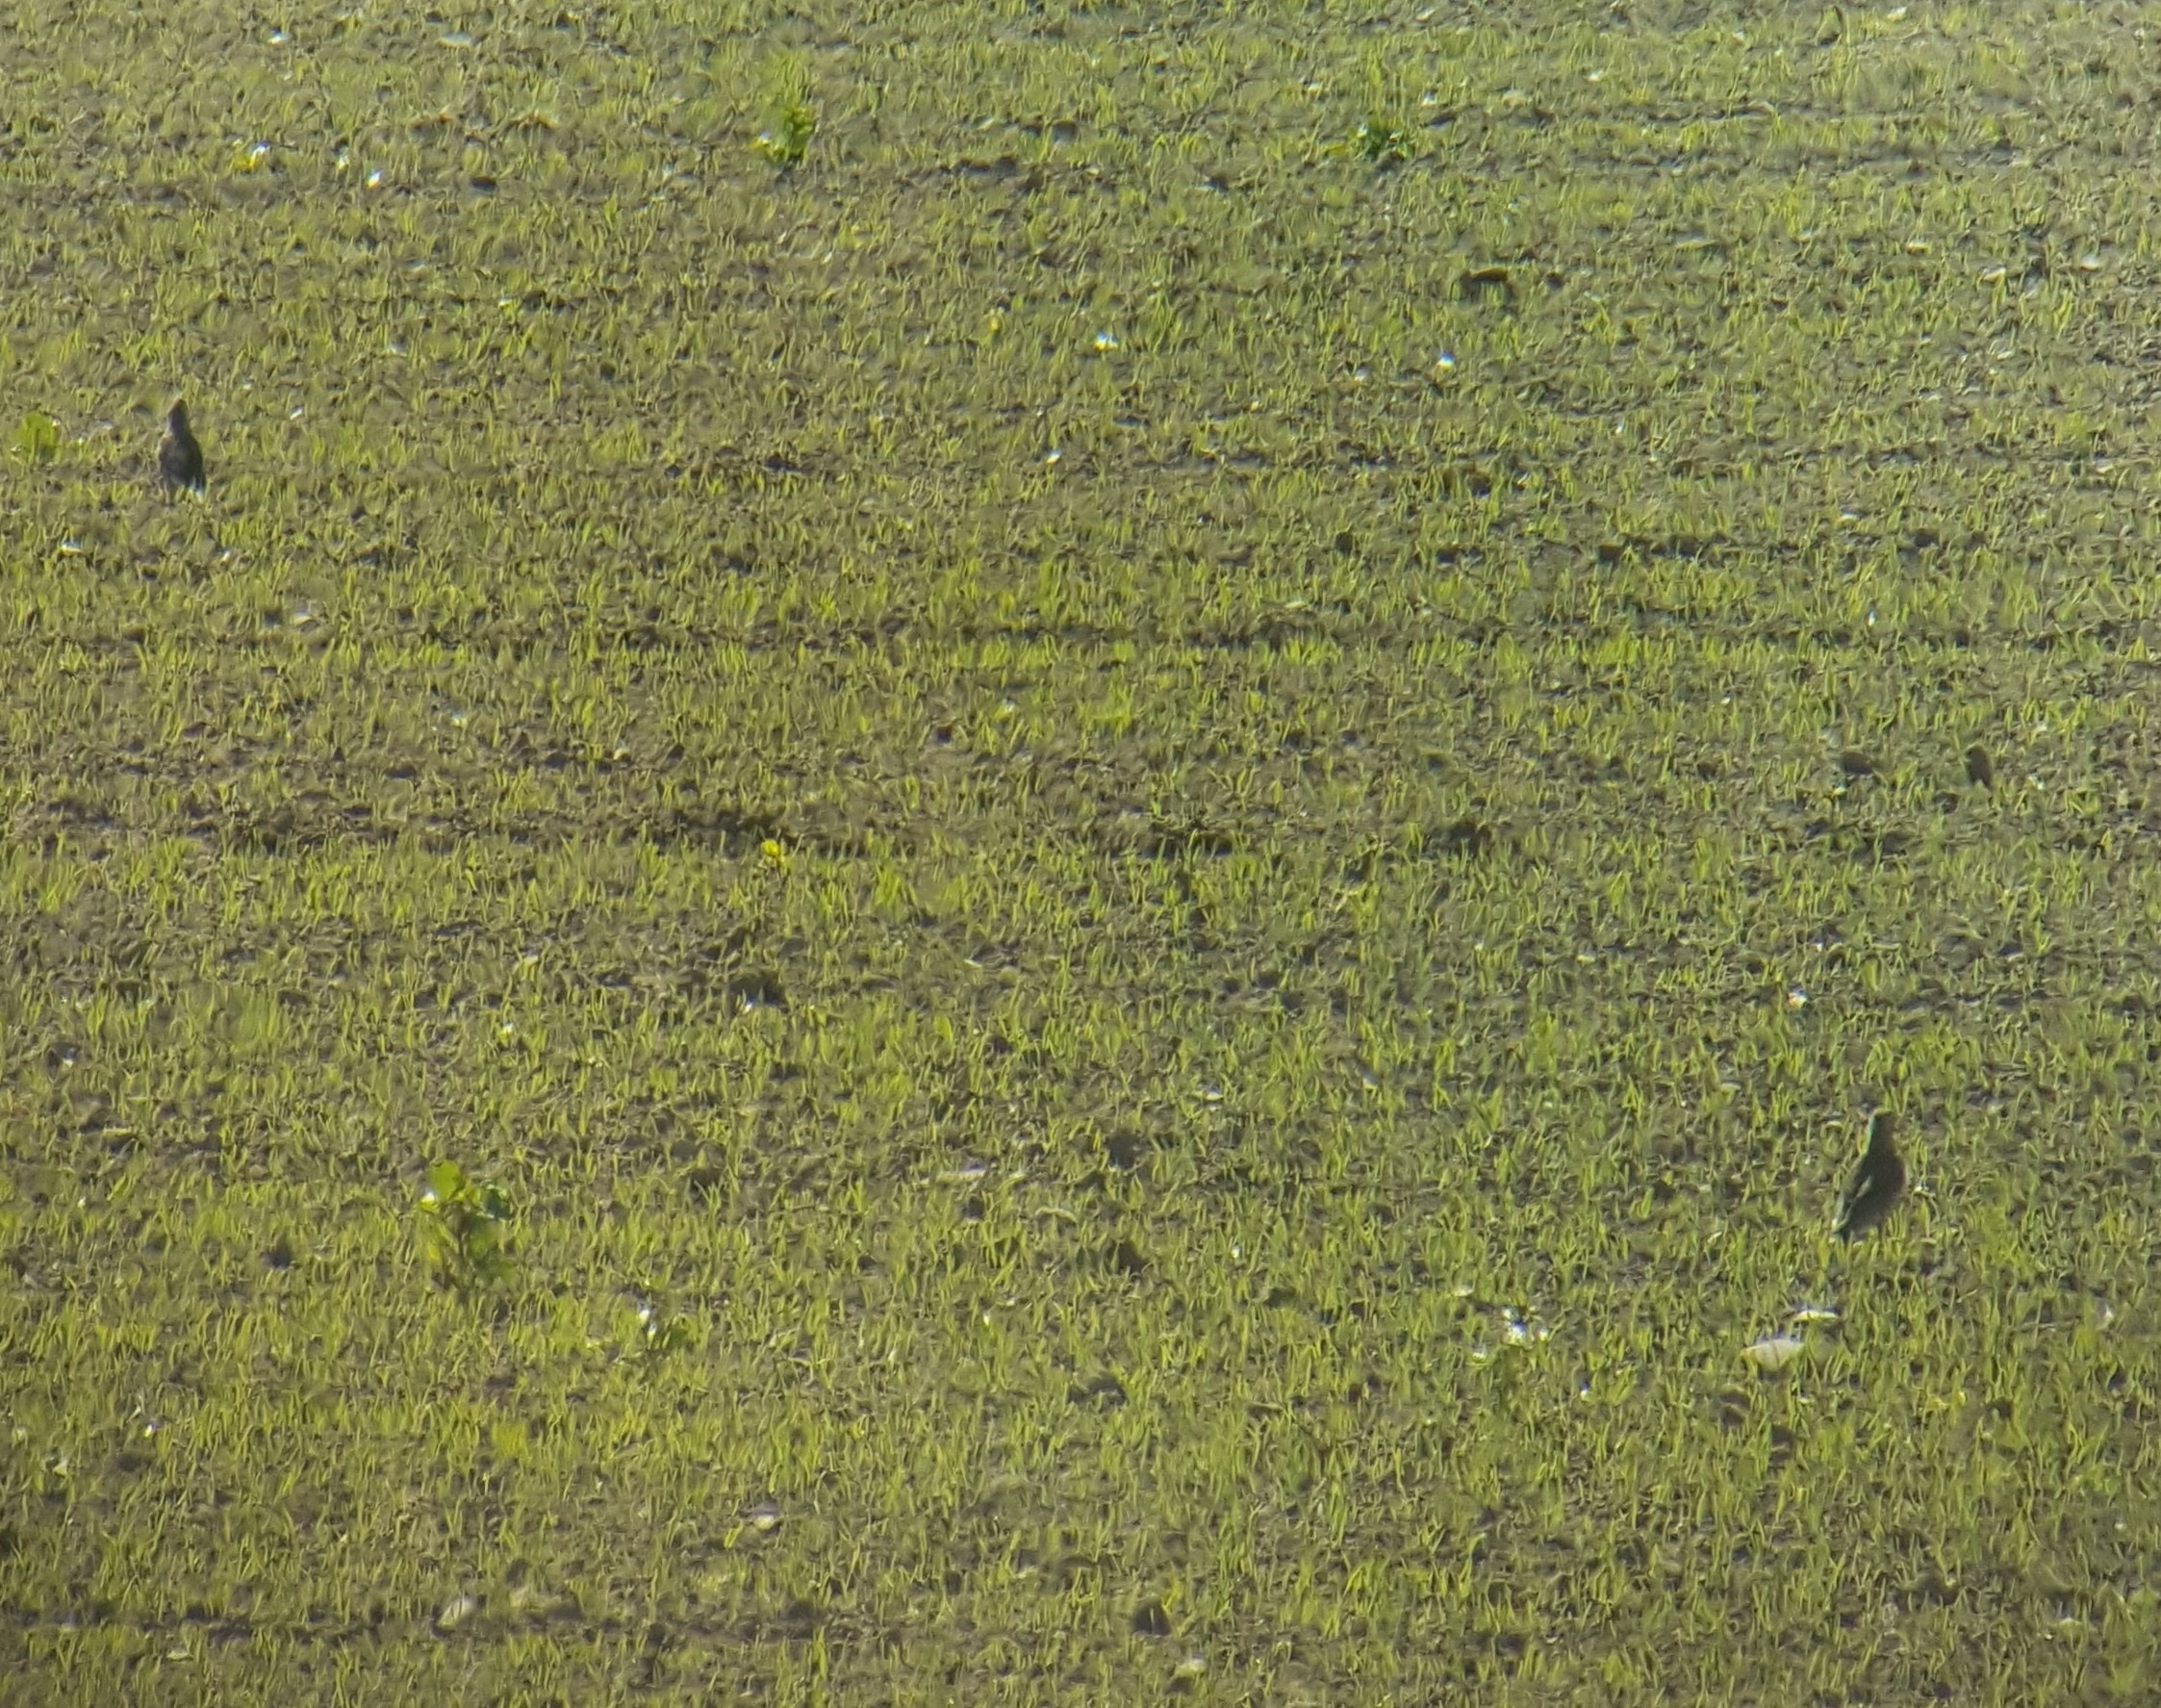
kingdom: Animalia
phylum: Chordata
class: Aves
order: Passeriformes
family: Turdidae
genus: Turdus
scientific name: Turdus viscivorus
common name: Misteldrossel
